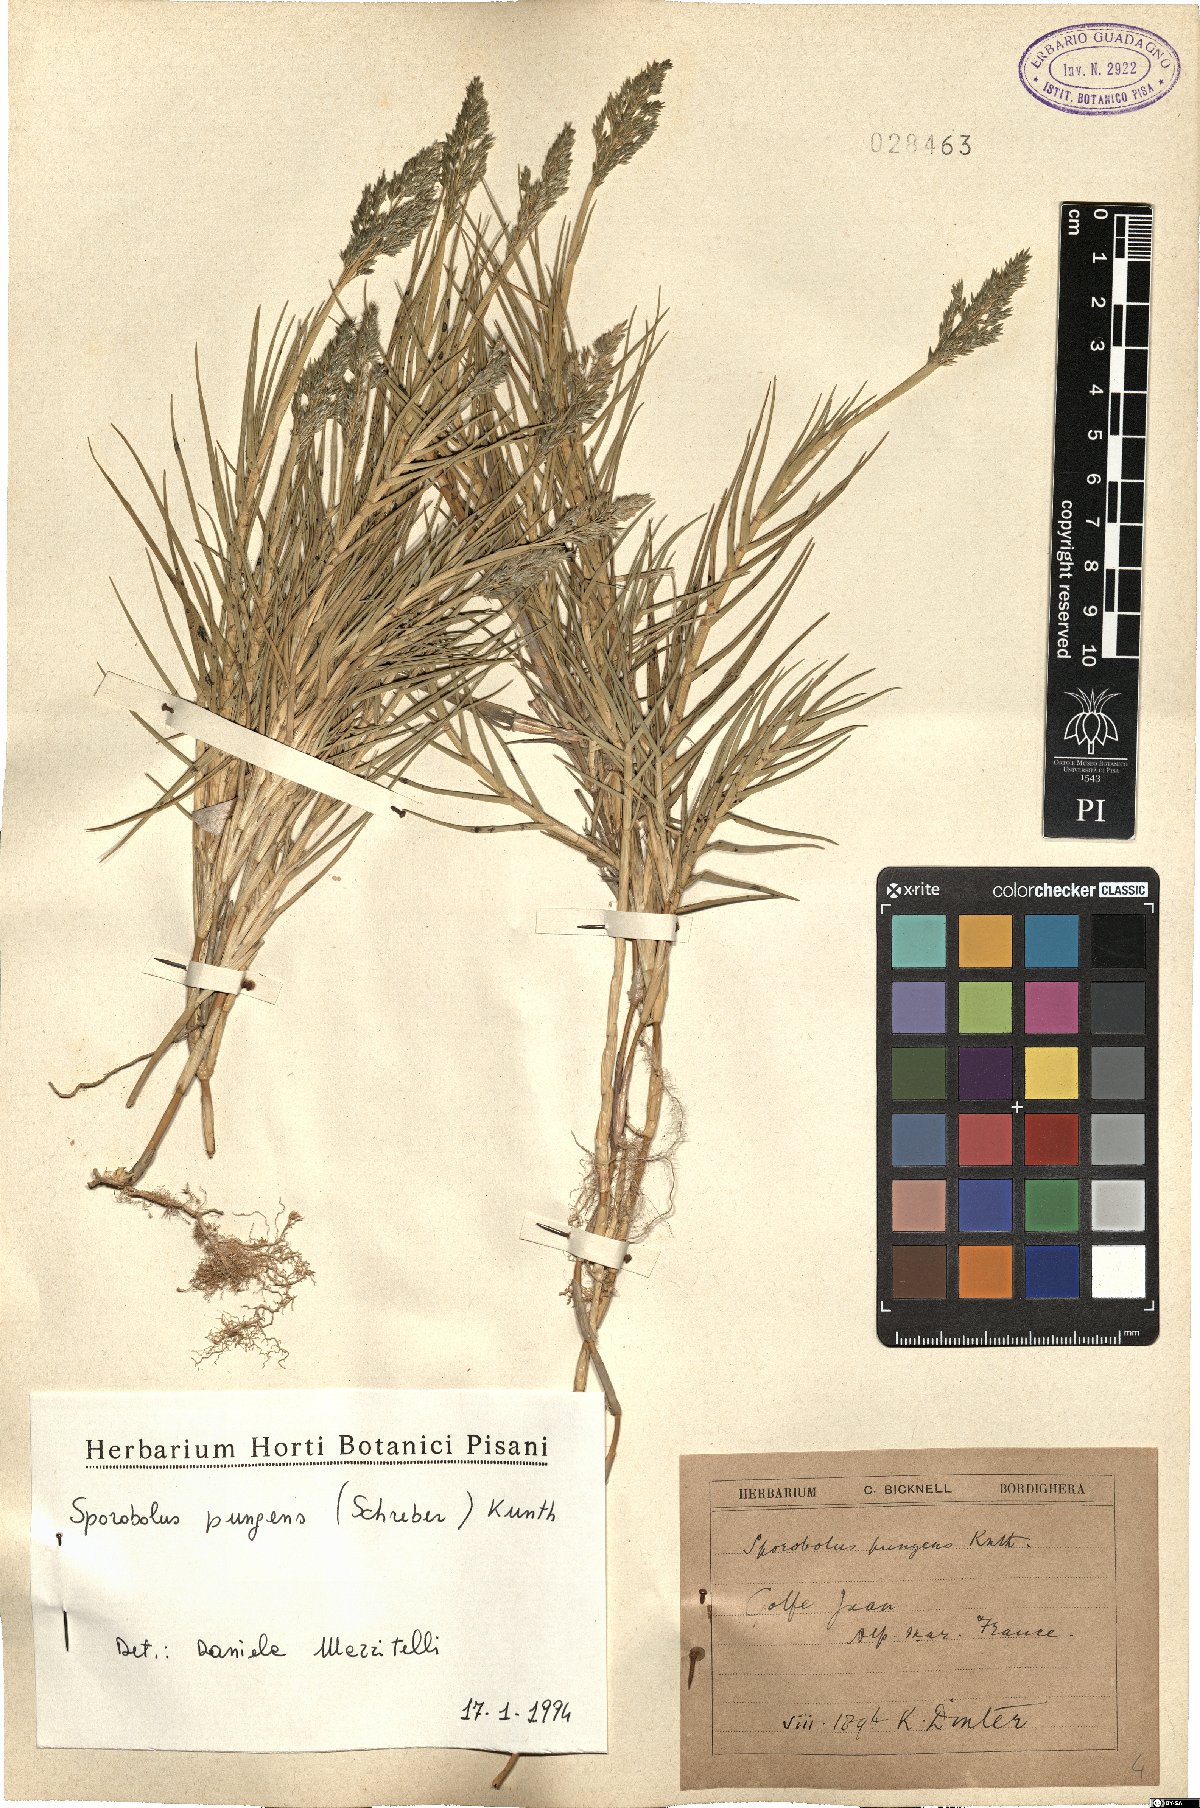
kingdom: Plantae
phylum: Tracheophyta
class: Liliopsida
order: Poales
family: Poaceae
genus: Sporobolus
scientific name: Sporobolus pungens
